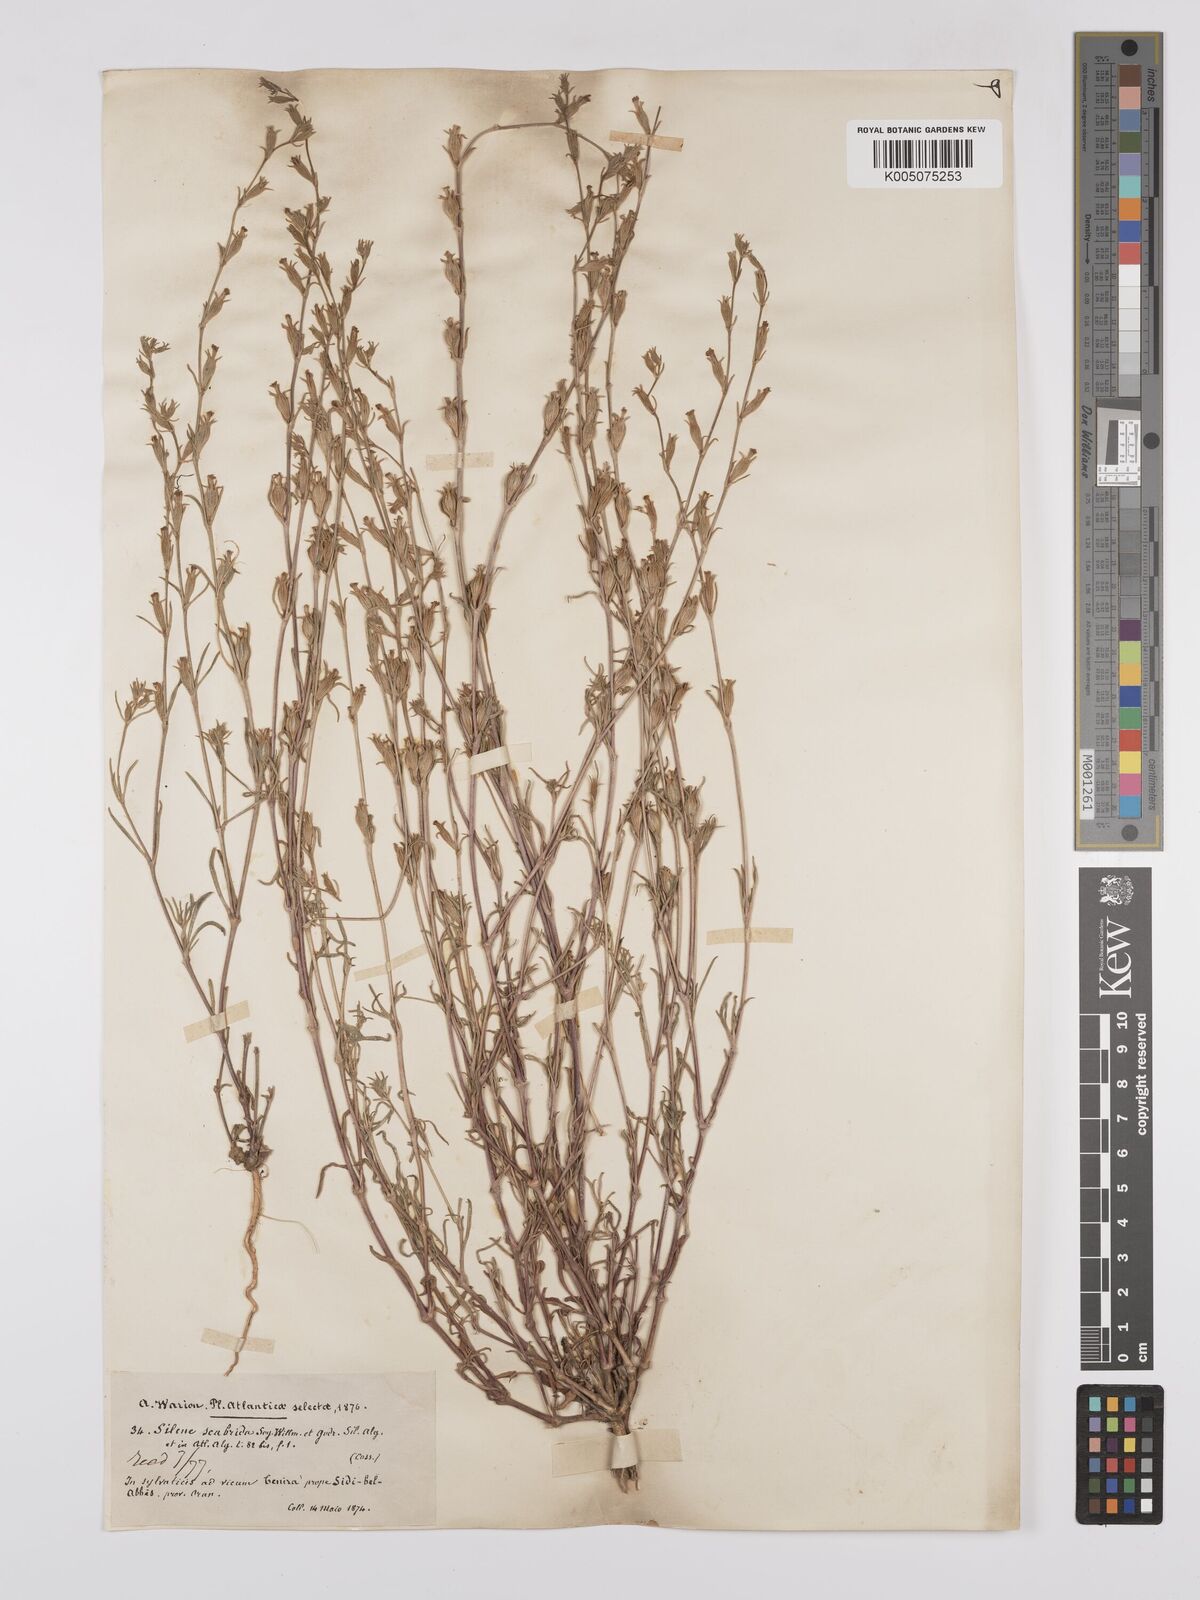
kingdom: Plantae
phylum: Tracheophyta
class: Magnoliopsida
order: Caryophyllales
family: Caryophyllaceae
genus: Silene
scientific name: Silene scabrida
